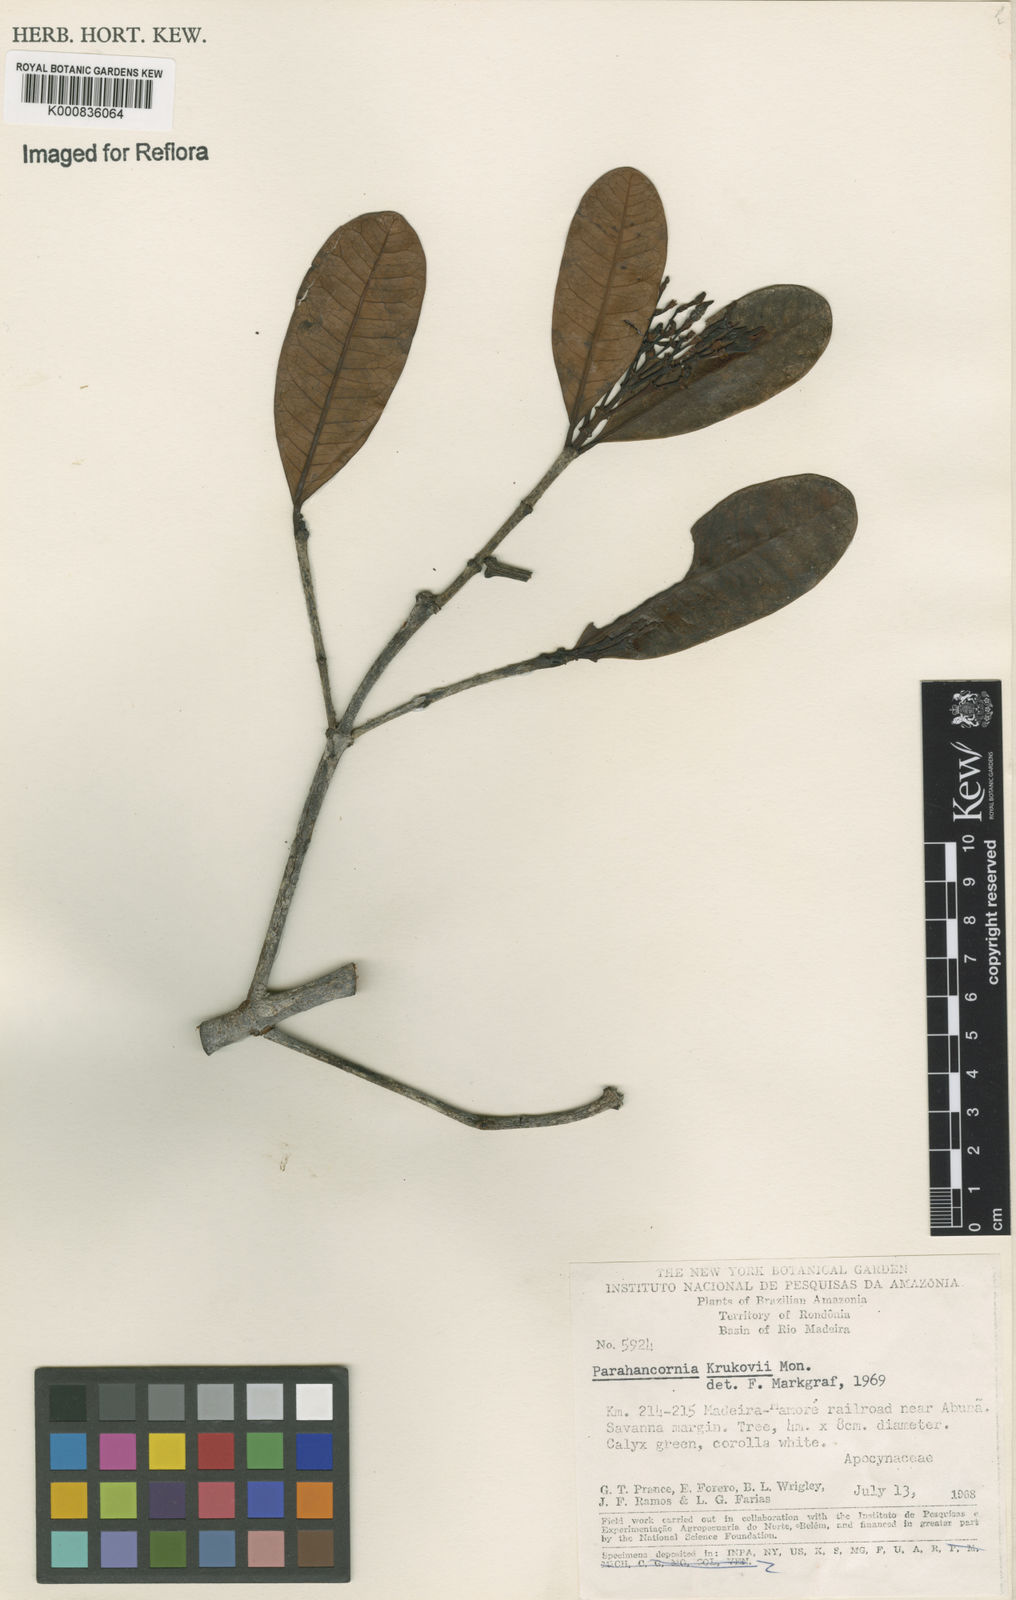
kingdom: Plantae
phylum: Tracheophyta
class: Magnoliopsida
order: Gentianales
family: Apocynaceae
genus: Parahancornia
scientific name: Parahancornia oblonga
